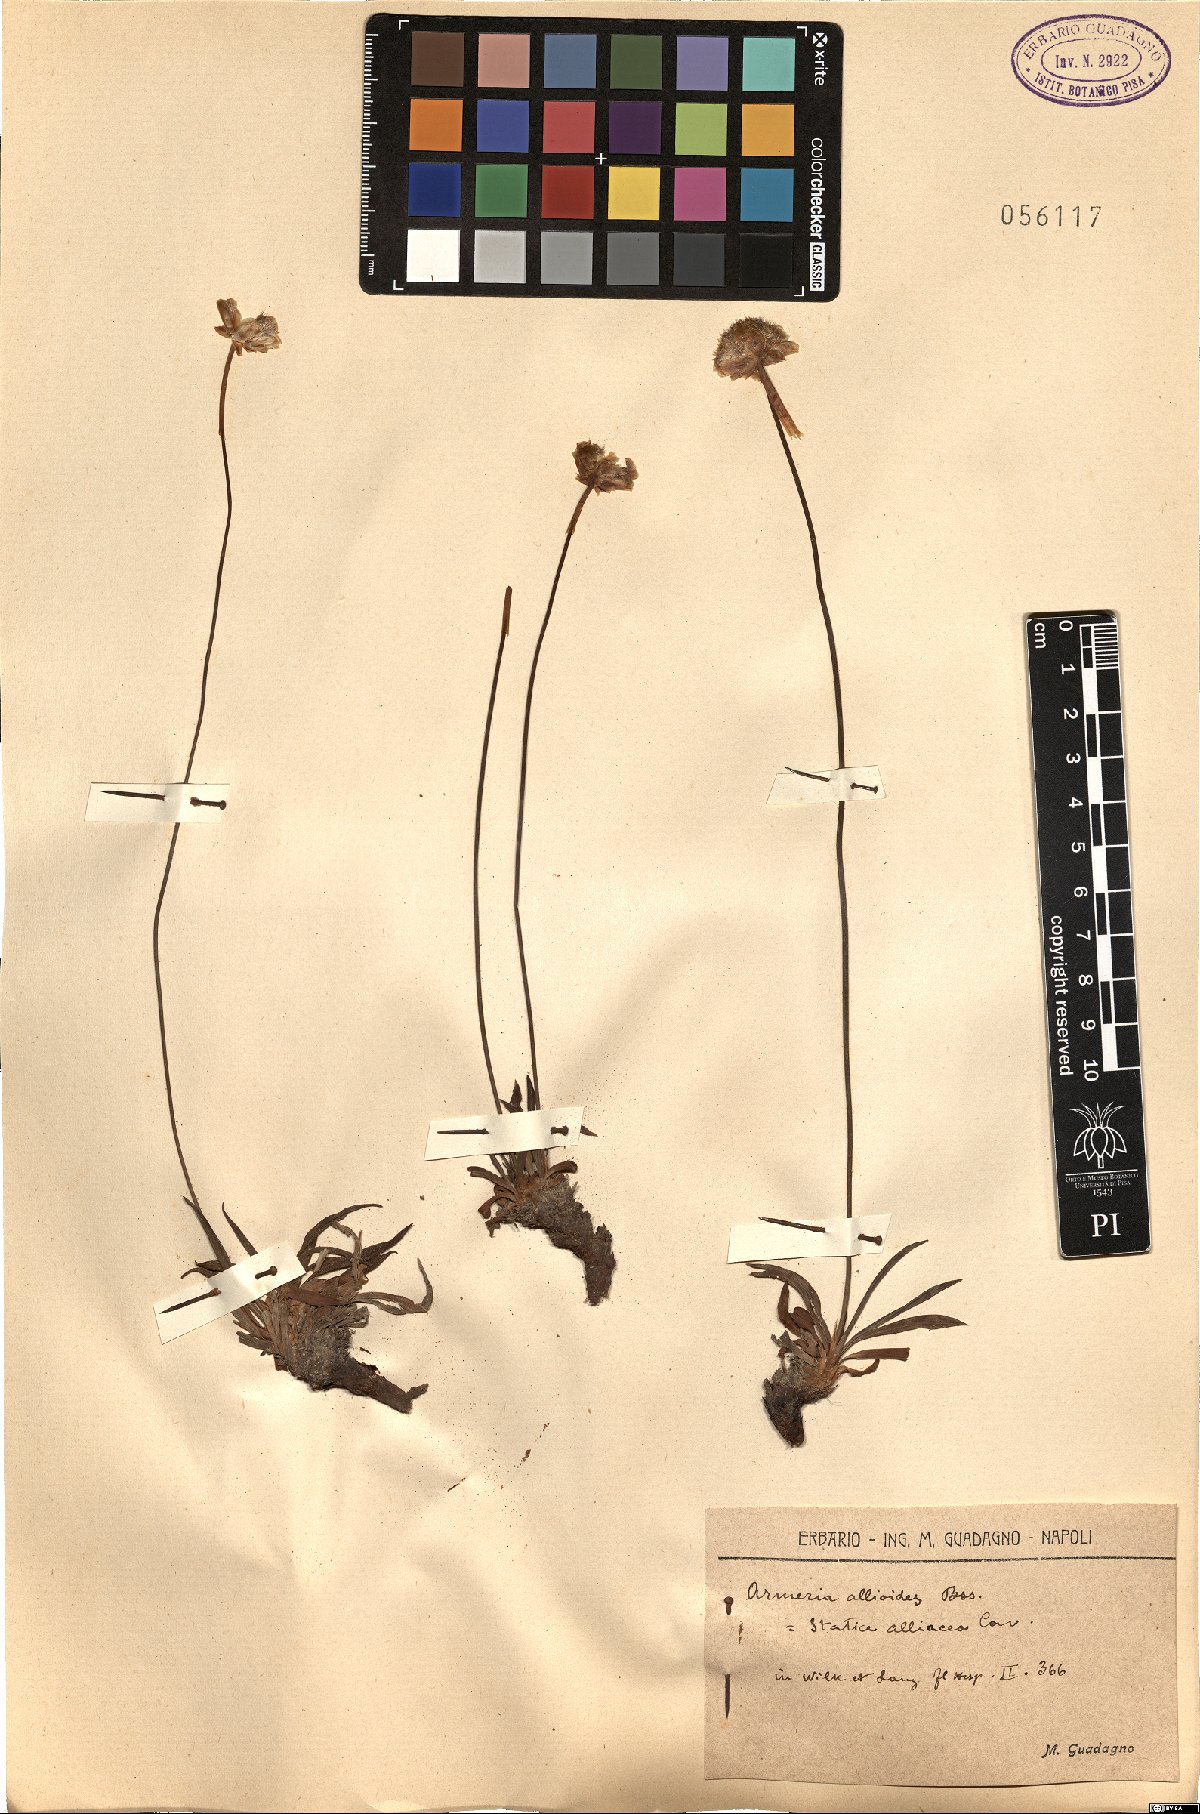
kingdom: Plantae
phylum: Tracheophyta
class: Magnoliopsida
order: Caryophyllales
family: Plumbaginaceae
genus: Armeria
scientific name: Armeria alliacea
